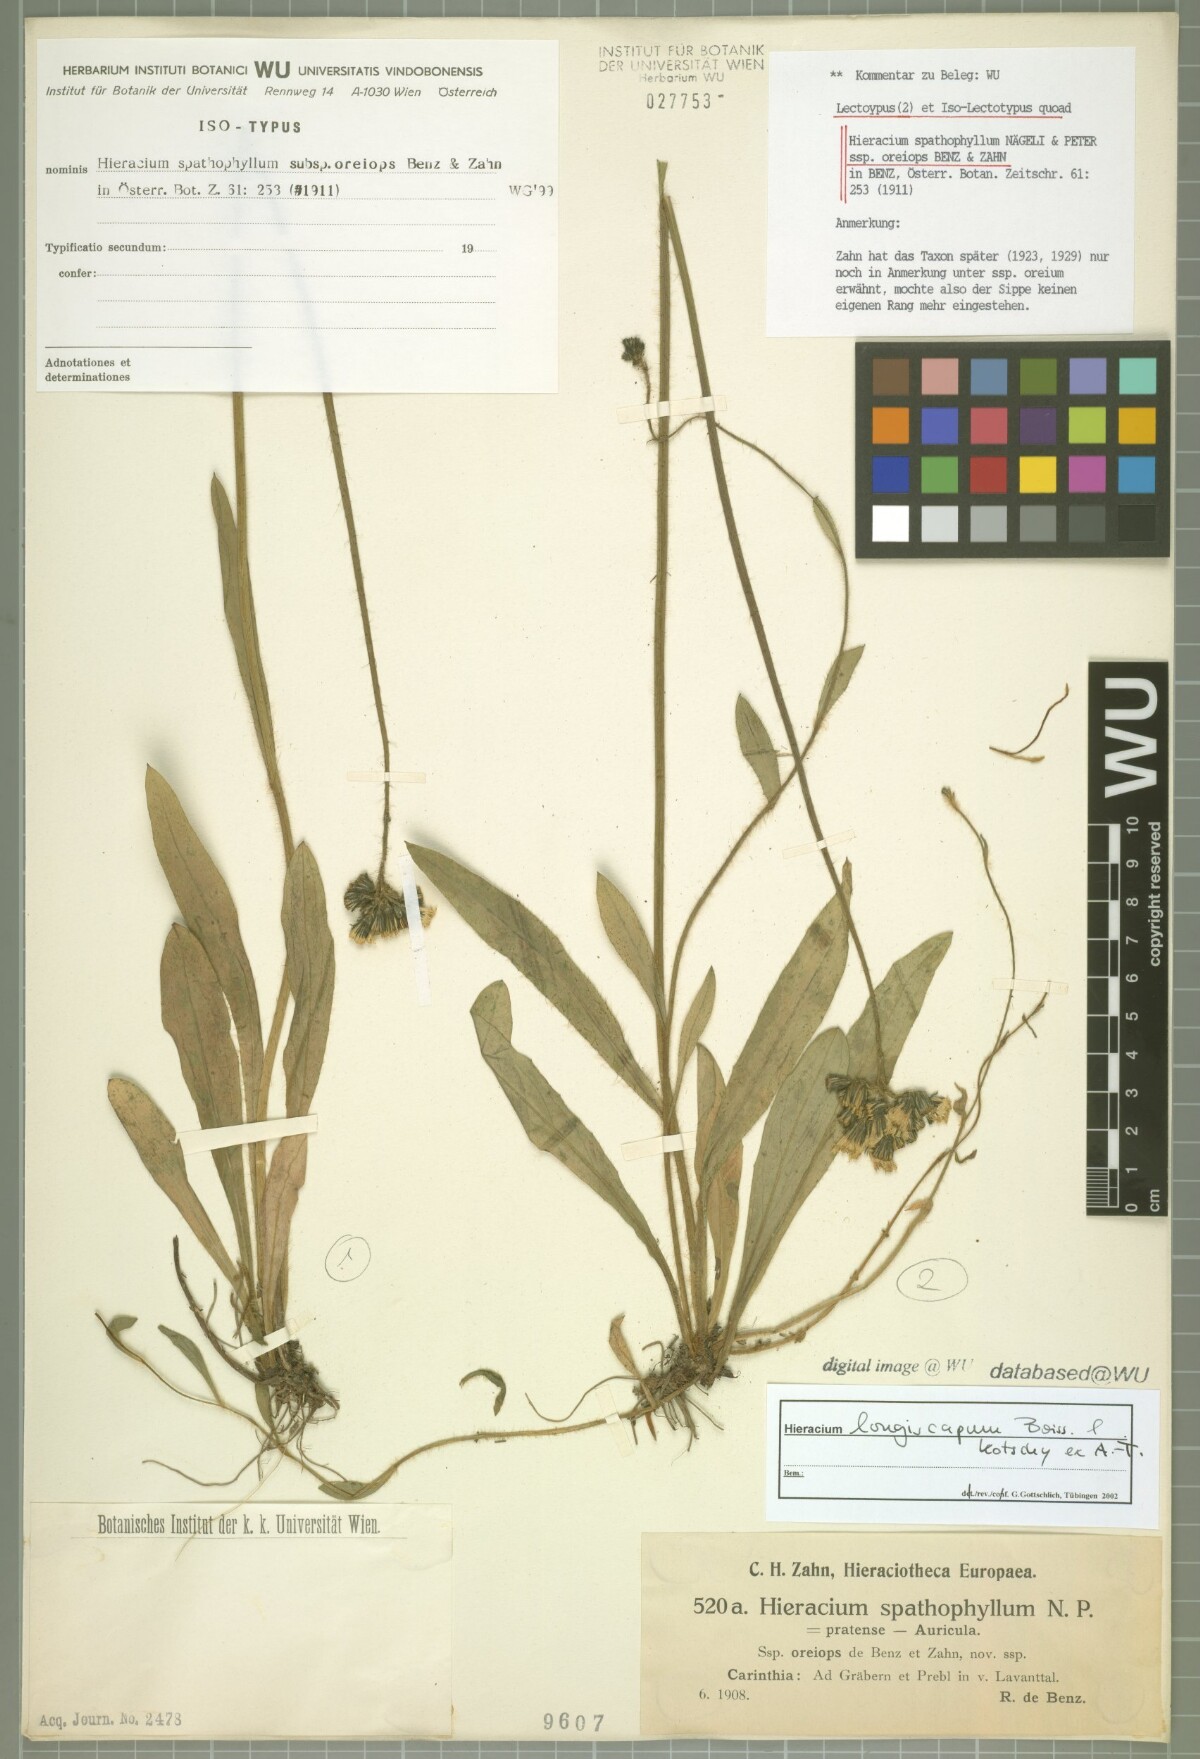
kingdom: Plantae
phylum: Tracheophyta
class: Magnoliopsida
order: Asterales
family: Asteraceae
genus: Pilosella
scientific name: Pilosella longiscapa
